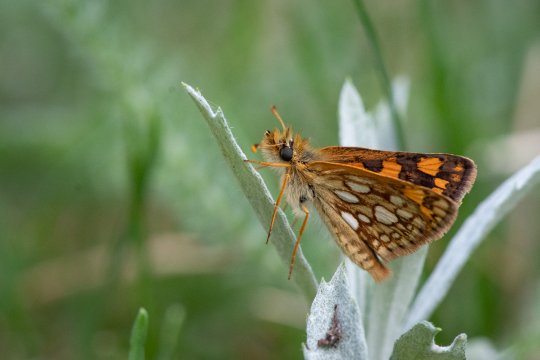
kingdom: Animalia
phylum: Arthropoda
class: Insecta
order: Lepidoptera
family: Hesperiidae
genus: Carterocephalus
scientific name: Carterocephalus palaemon
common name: Chequered Skipper
